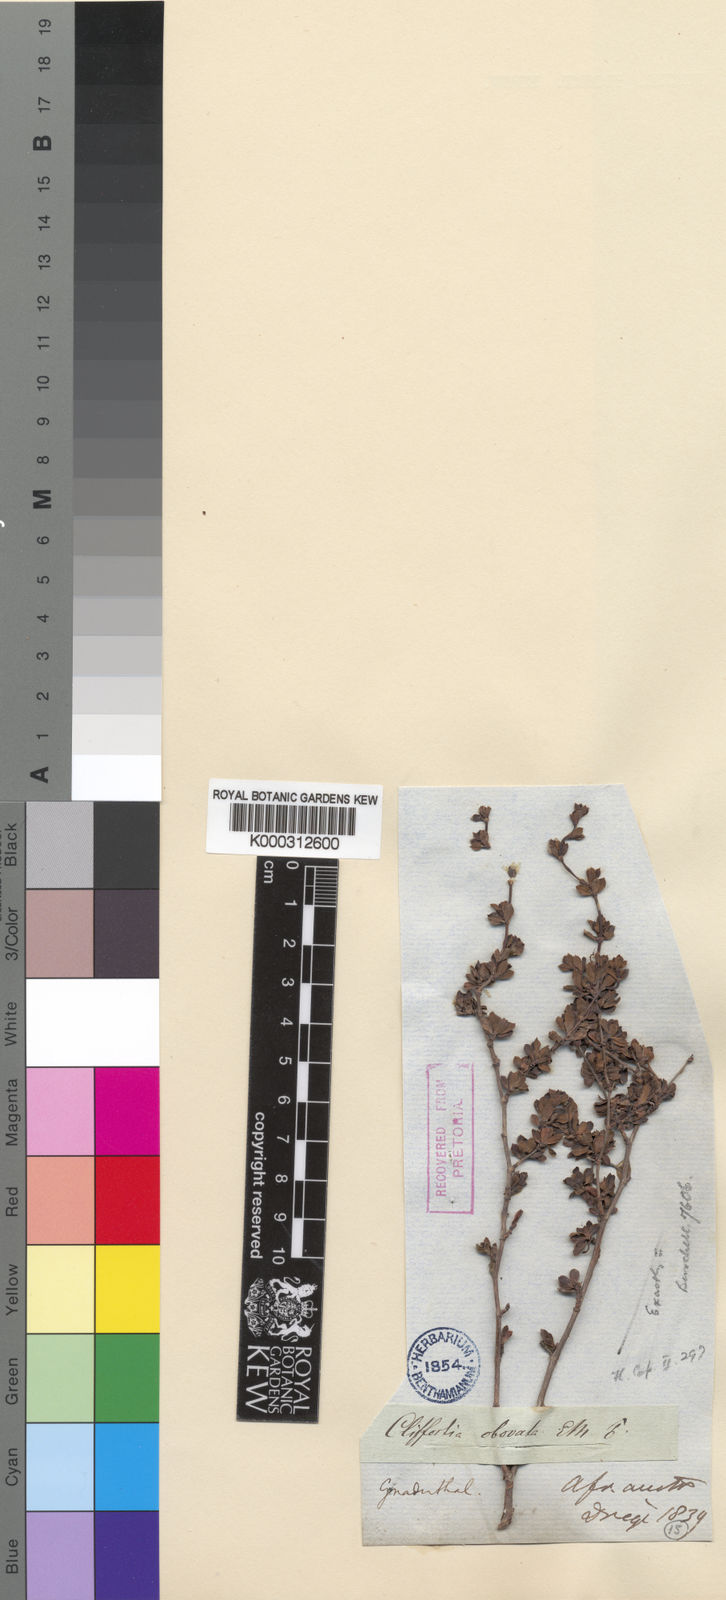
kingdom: Plantae
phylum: Tracheophyta
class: Magnoliopsida
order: Rosales
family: Rosaceae
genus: Cliffortia
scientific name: Cliffortia
